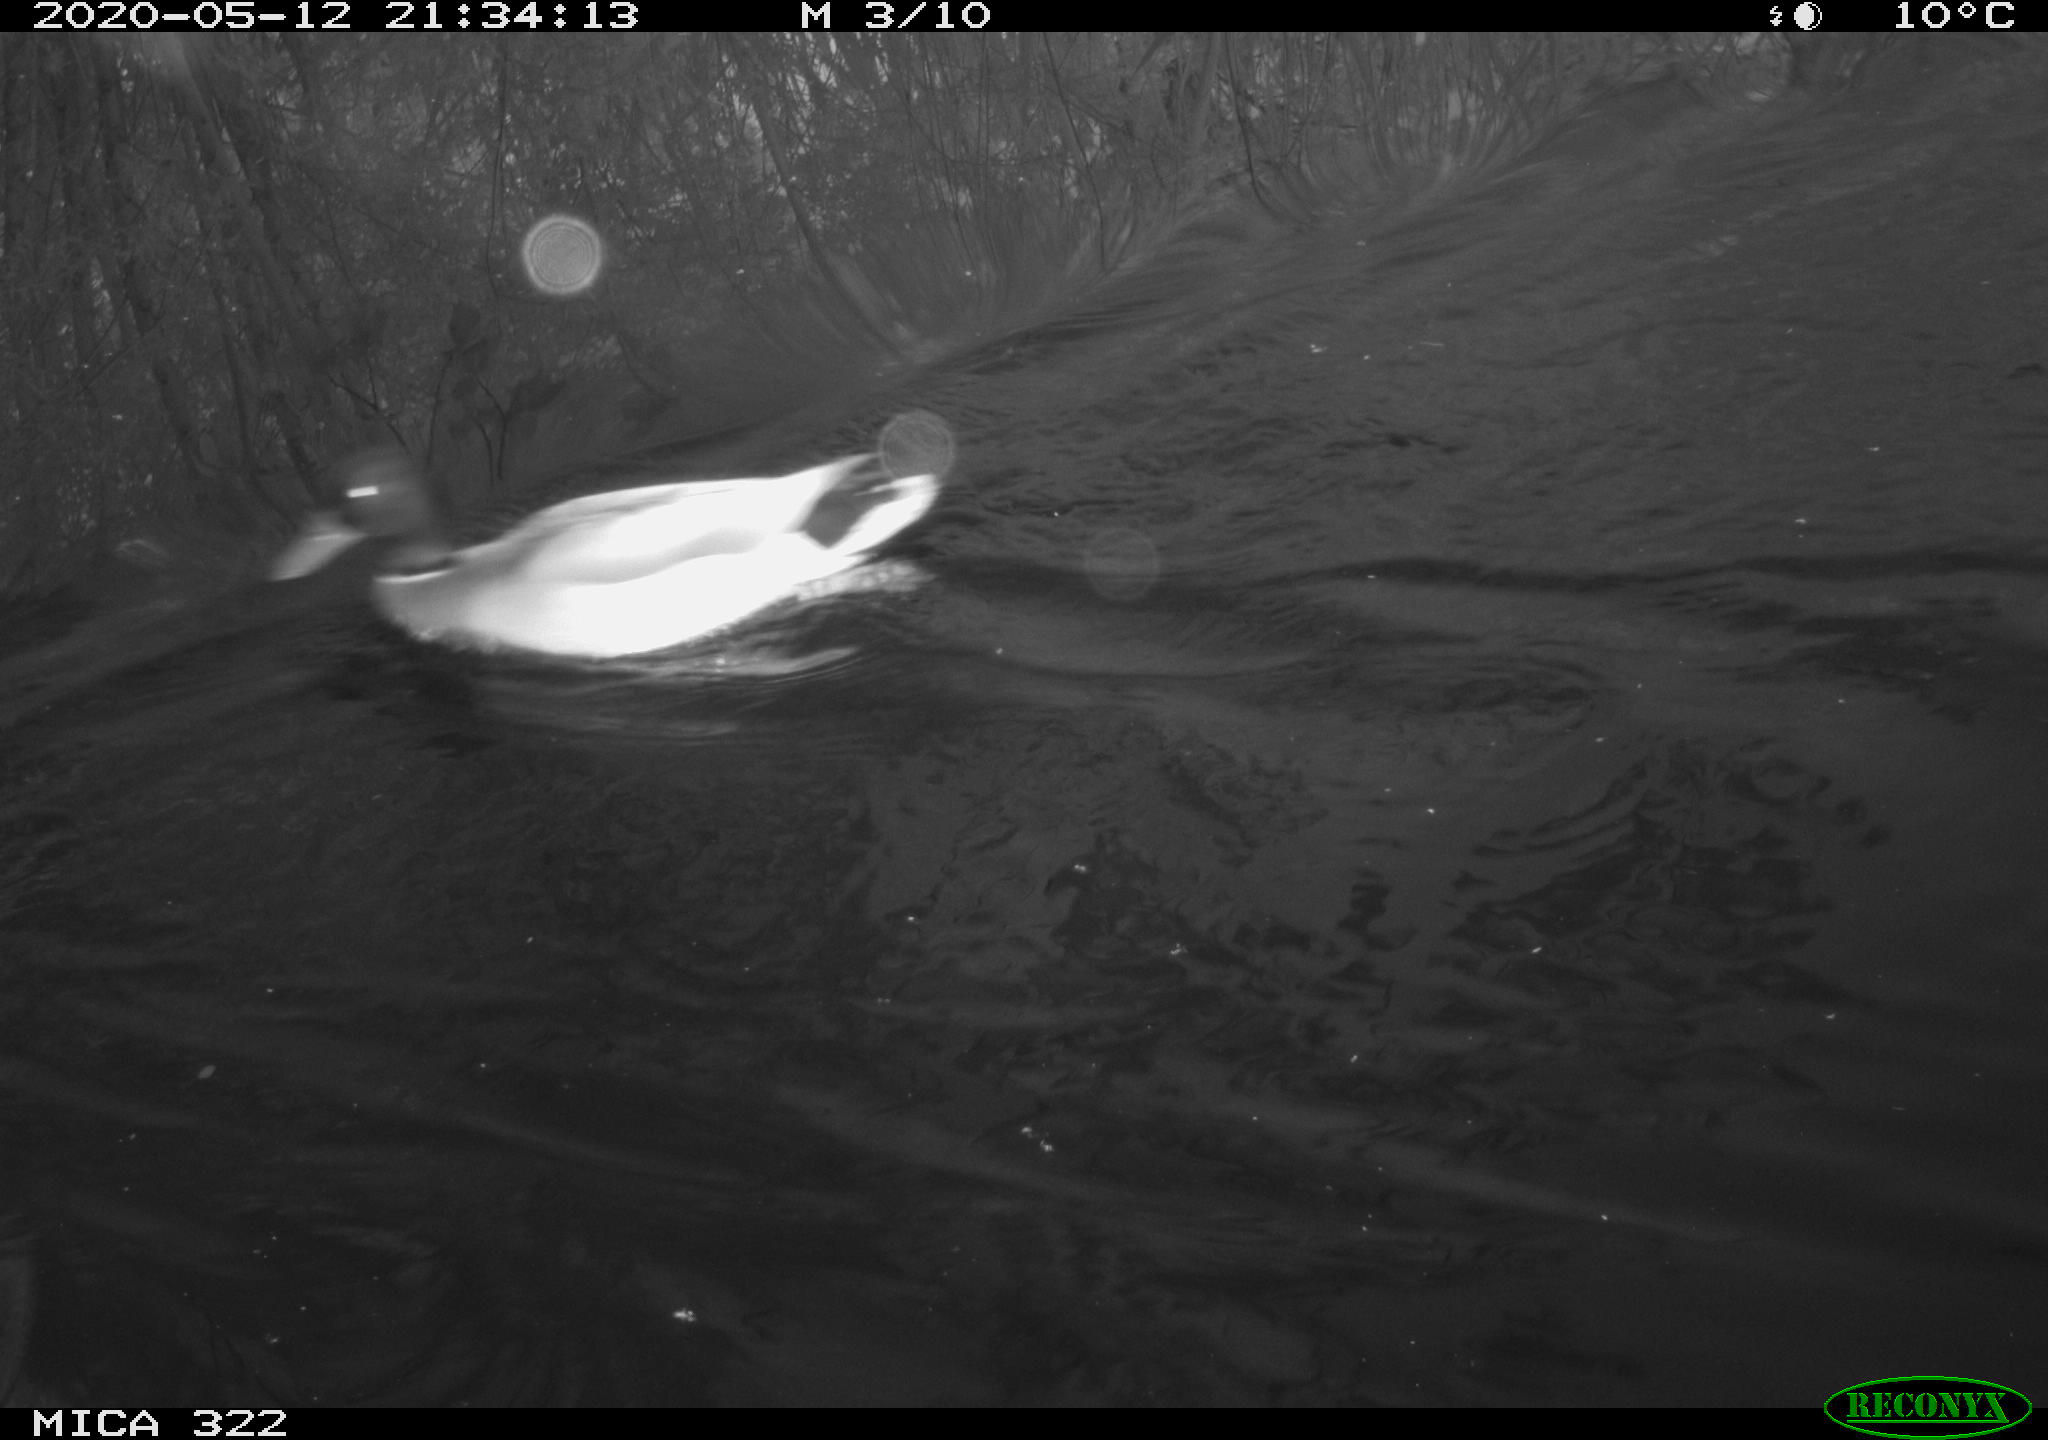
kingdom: Animalia
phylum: Chordata
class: Aves
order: Anseriformes
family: Anatidae
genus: Anas
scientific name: Anas platyrhynchos
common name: Mallard
